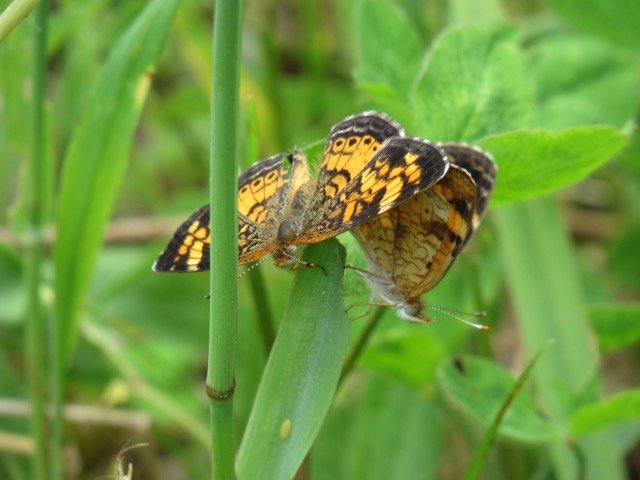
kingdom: Animalia
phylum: Arthropoda
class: Insecta
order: Lepidoptera
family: Nymphalidae
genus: Phyciodes
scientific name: Phyciodes tharos
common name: Pearl Crescent
